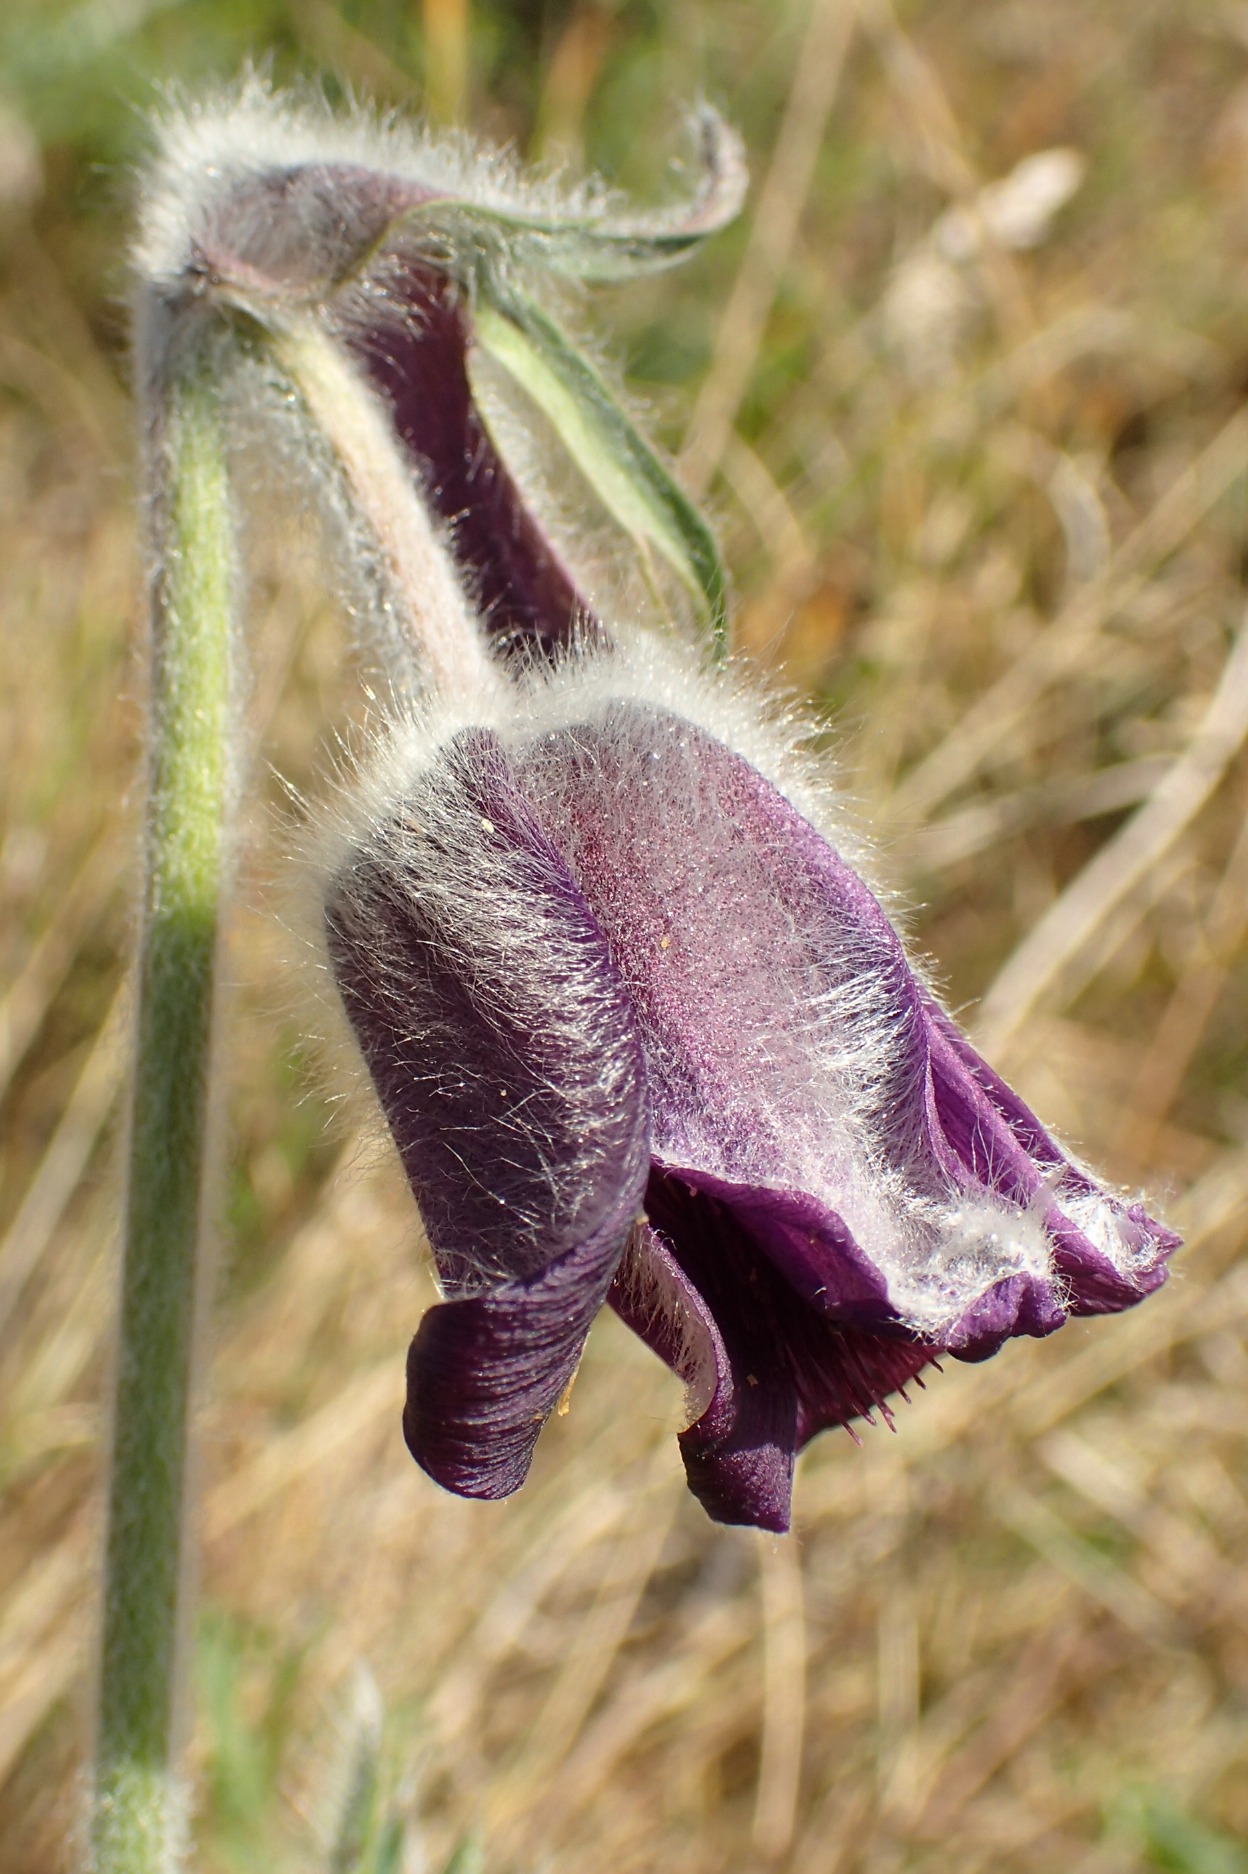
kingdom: Plantae
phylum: Tracheophyta
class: Magnoliopsida
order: Ranunculales
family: Ranunculaceae
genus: Pulsatilla
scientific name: Pulsatilla pratensis
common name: Nikkende kobjælde
